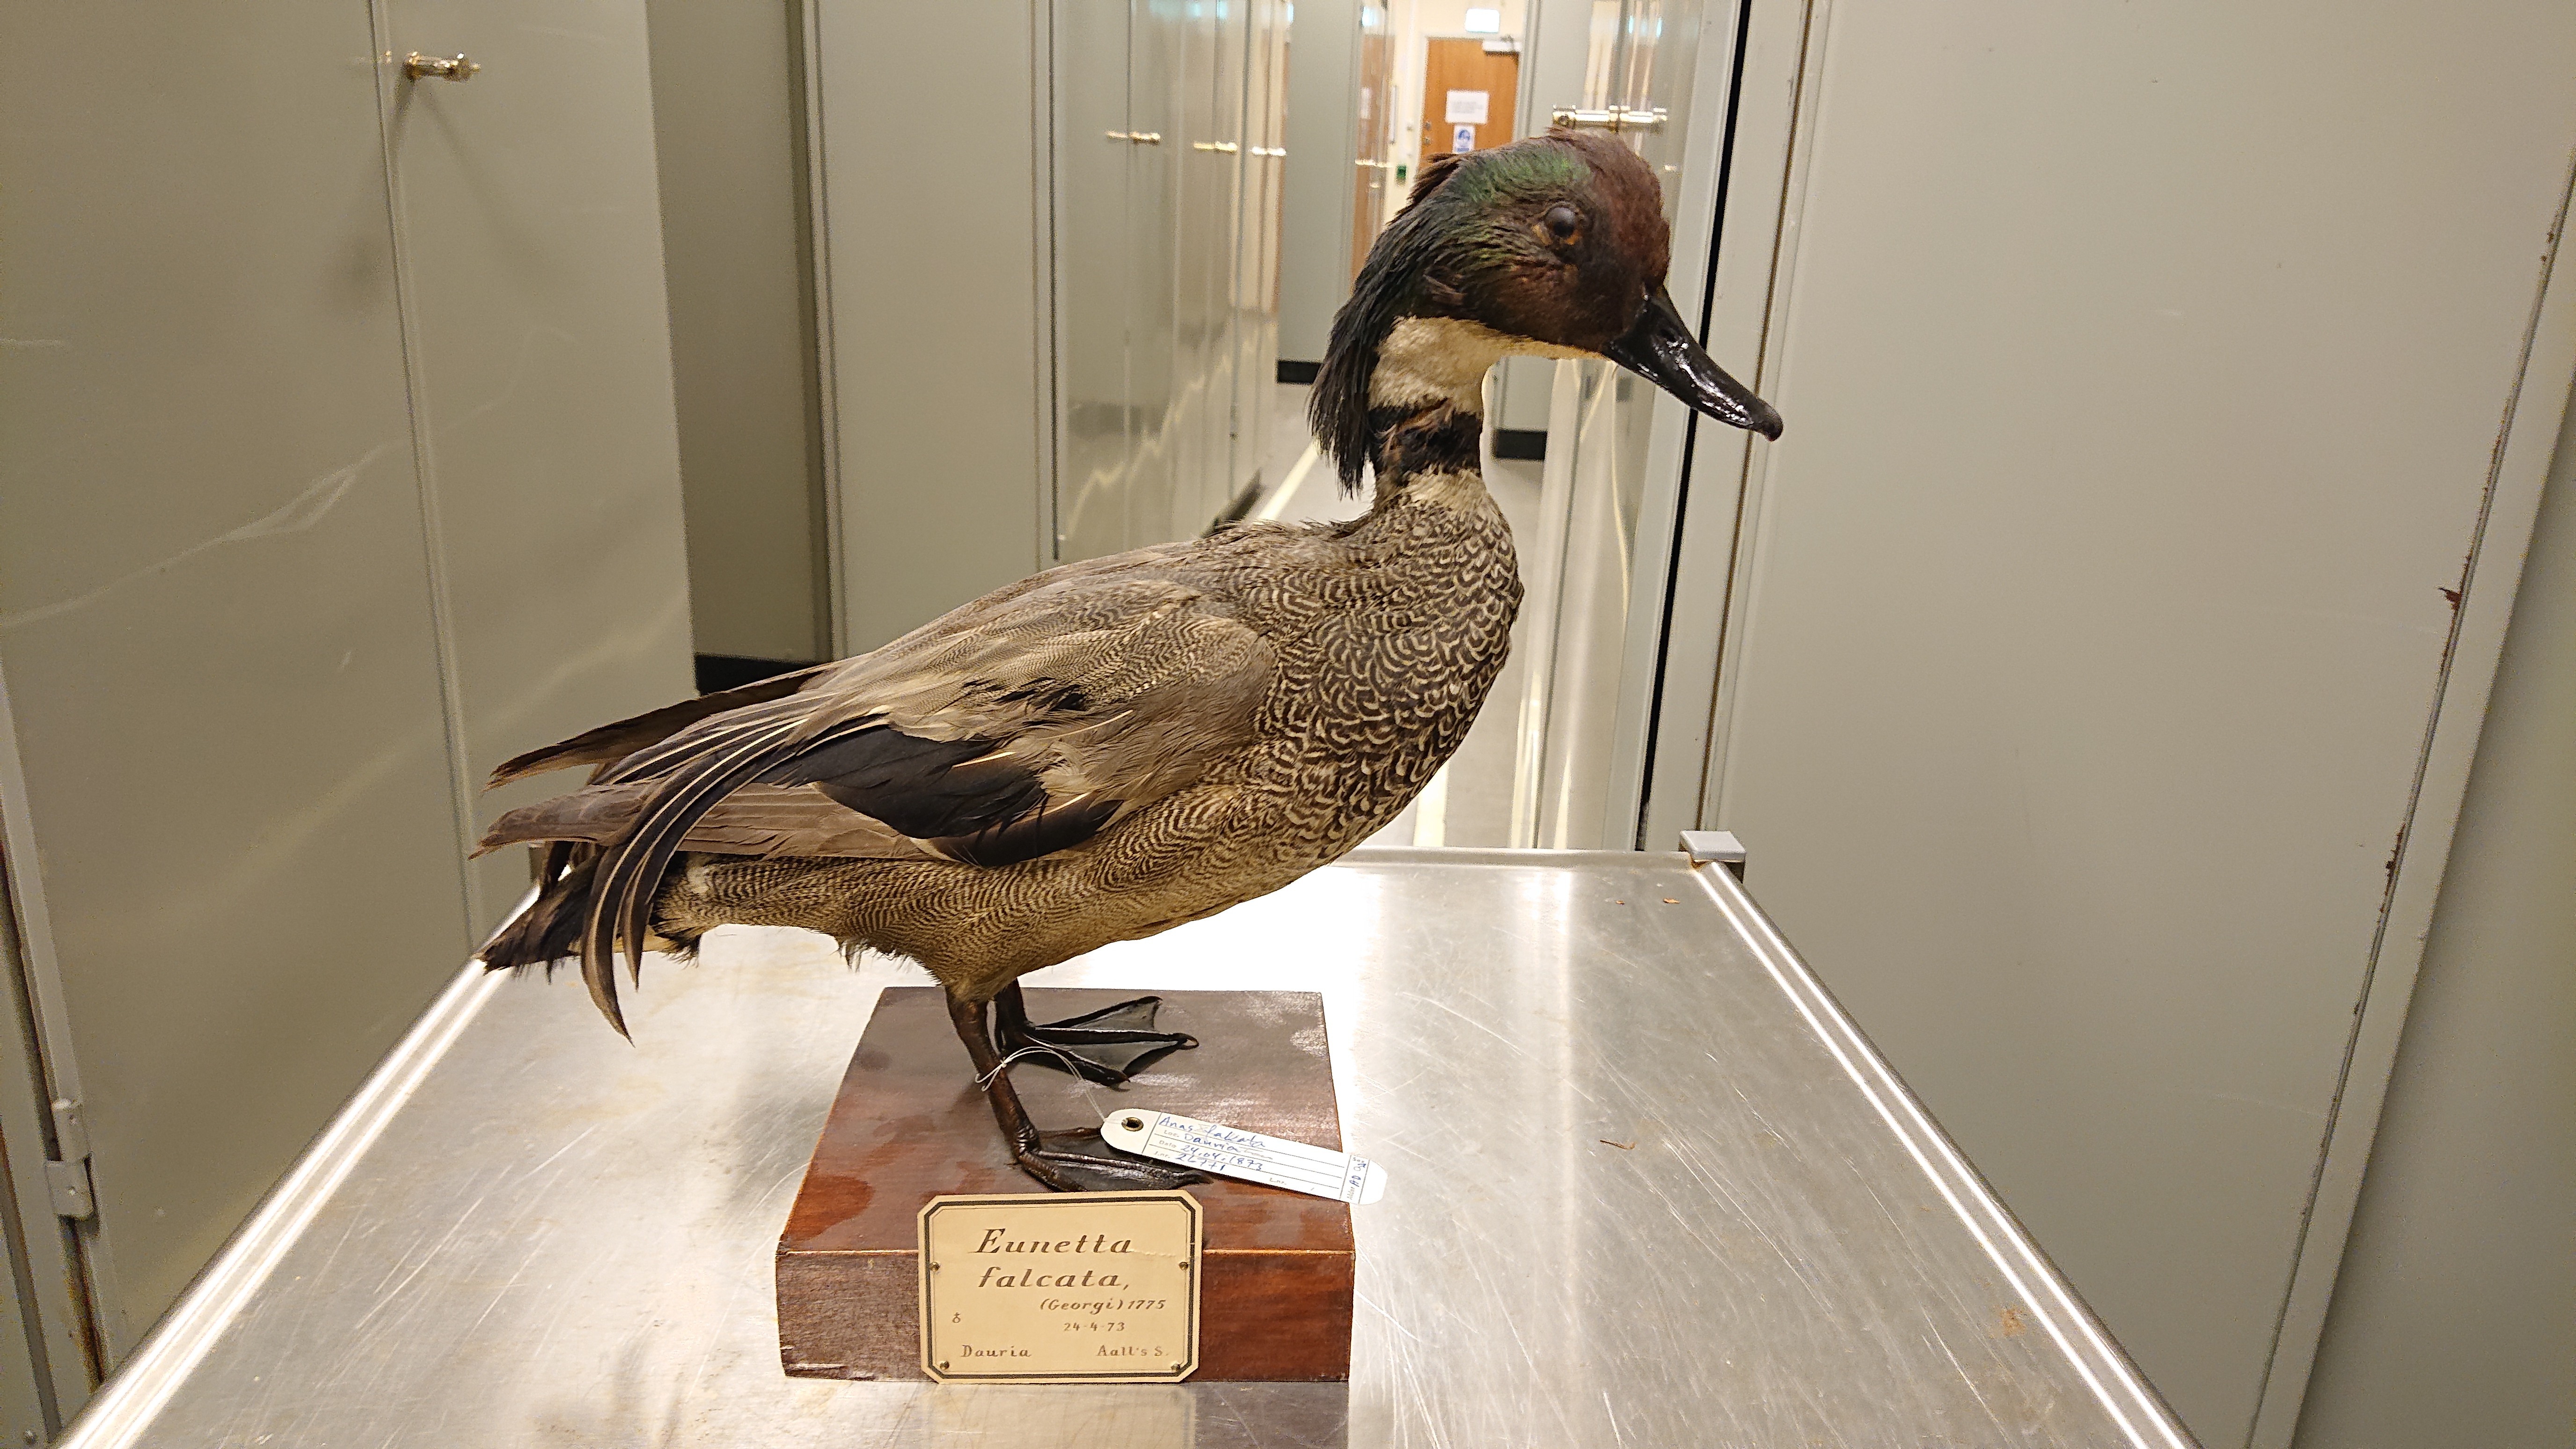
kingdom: Animalia
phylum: Chordata
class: Aves
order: Anseriformes
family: Anatidae
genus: Mareca
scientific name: Mareca falcata
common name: Falcated duck
